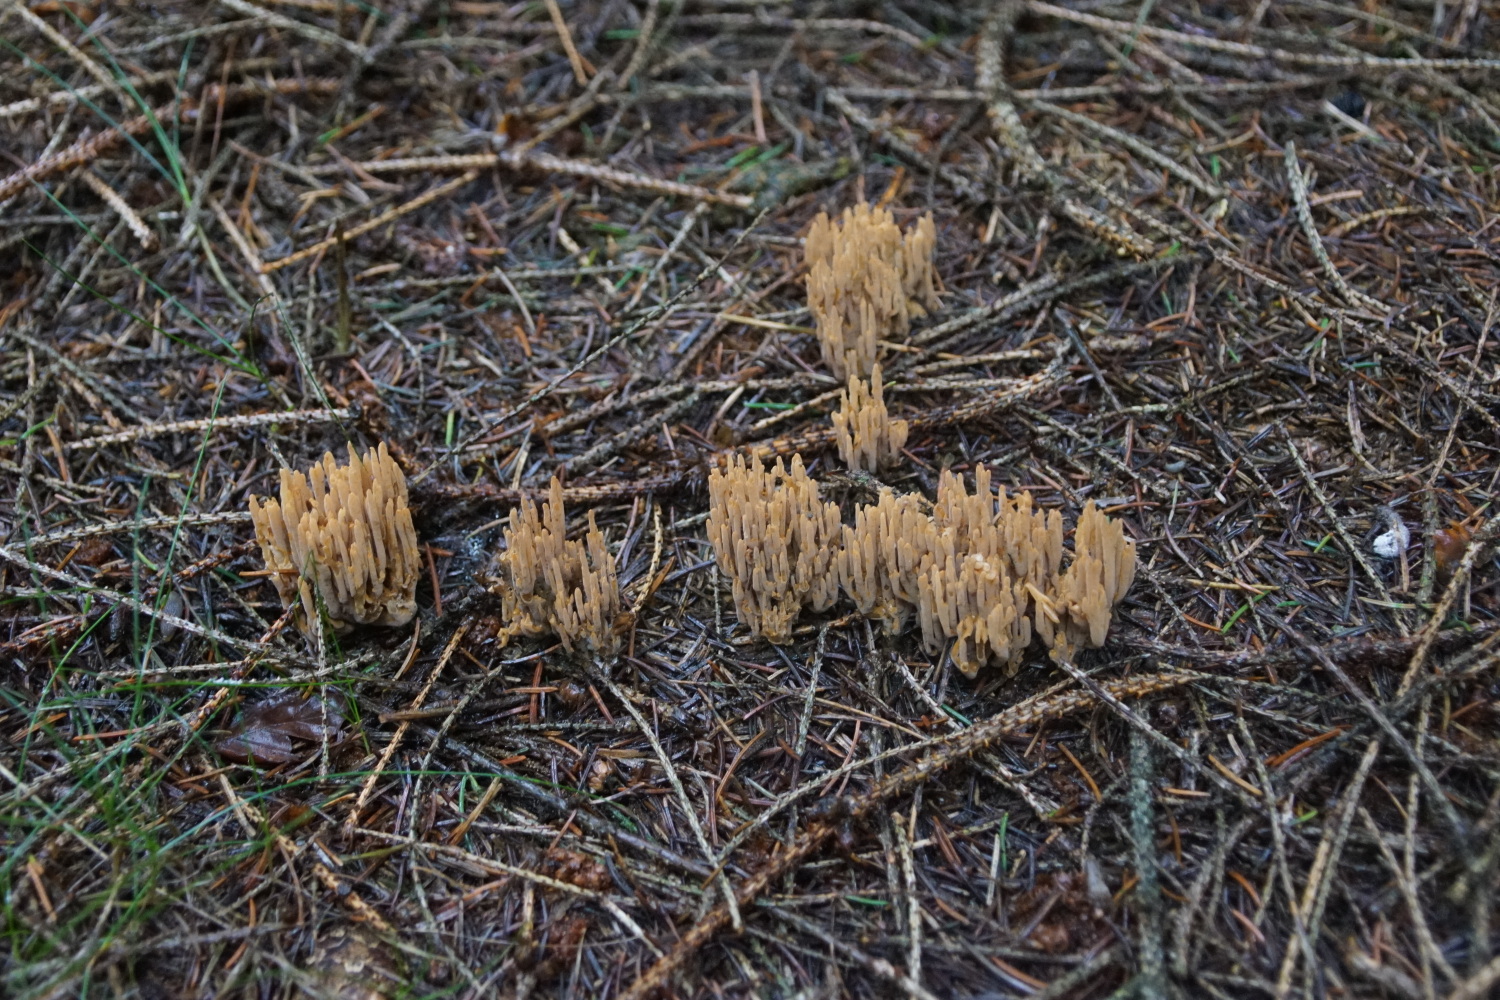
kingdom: Fungi
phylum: Basidiomycota
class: Agaricomycetes
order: Gomphales
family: Gomphaceae
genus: Phaeoclavulina
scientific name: Phaeoclavulina eumorpha
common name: gran-koralsvamp
